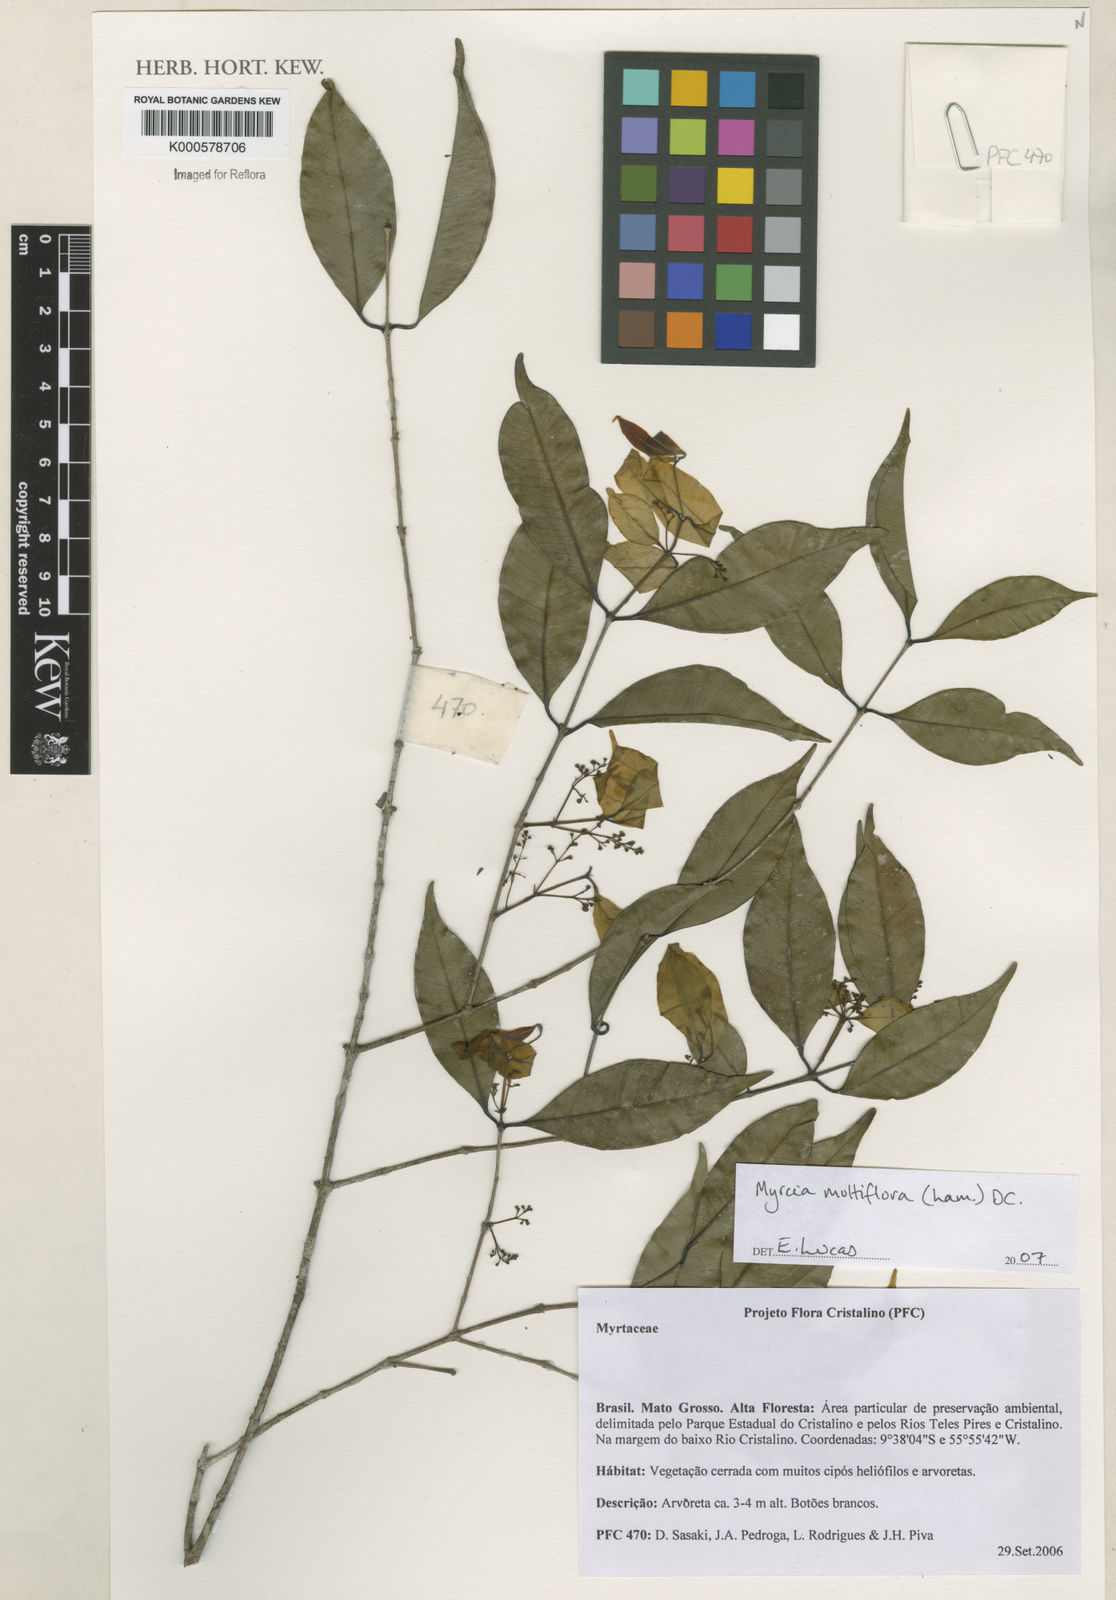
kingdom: Plantae
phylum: Tracheophyta
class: Magnoliopsida
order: Myrtales
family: Myrtaceae
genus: Myrcia
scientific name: Myrcia multiflora
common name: Pedra hume
